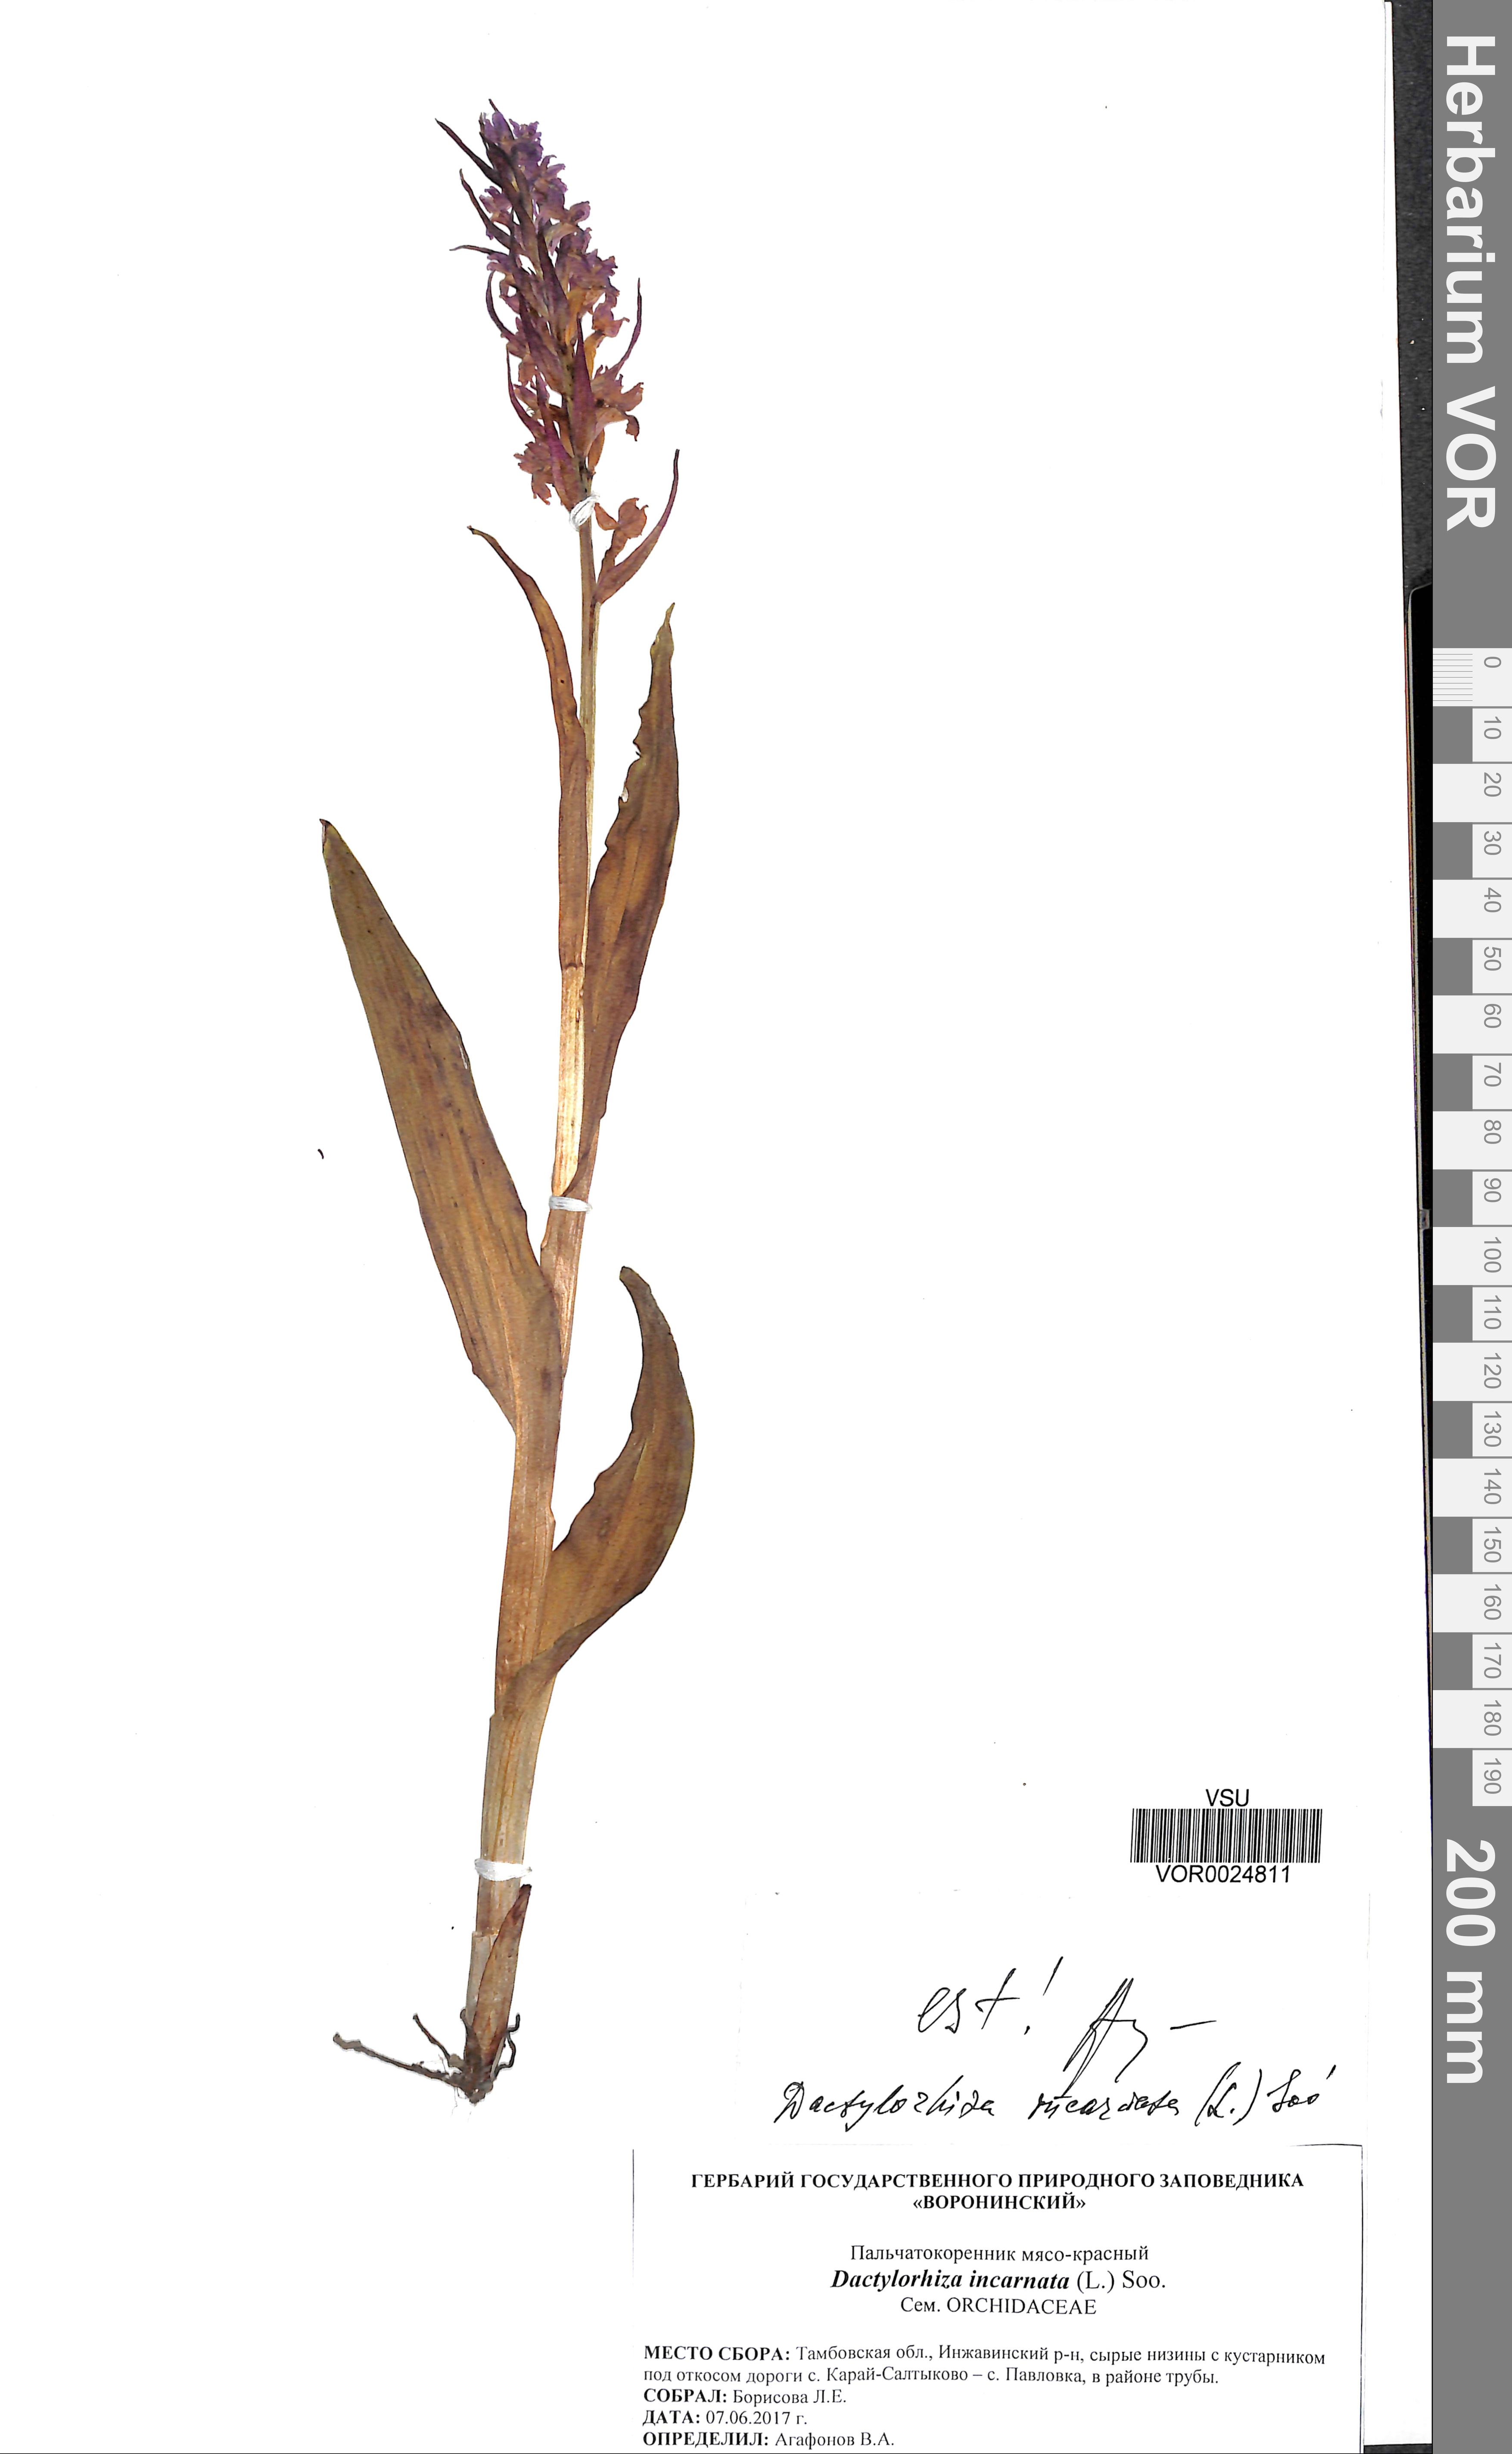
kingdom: Plantae
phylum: Tracheophyta
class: Liliopsida
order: Asparagales
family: Orchidaceae
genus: Dactylorhiza
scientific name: Dactylorhiza incarnata
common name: Early marsh-orchid
